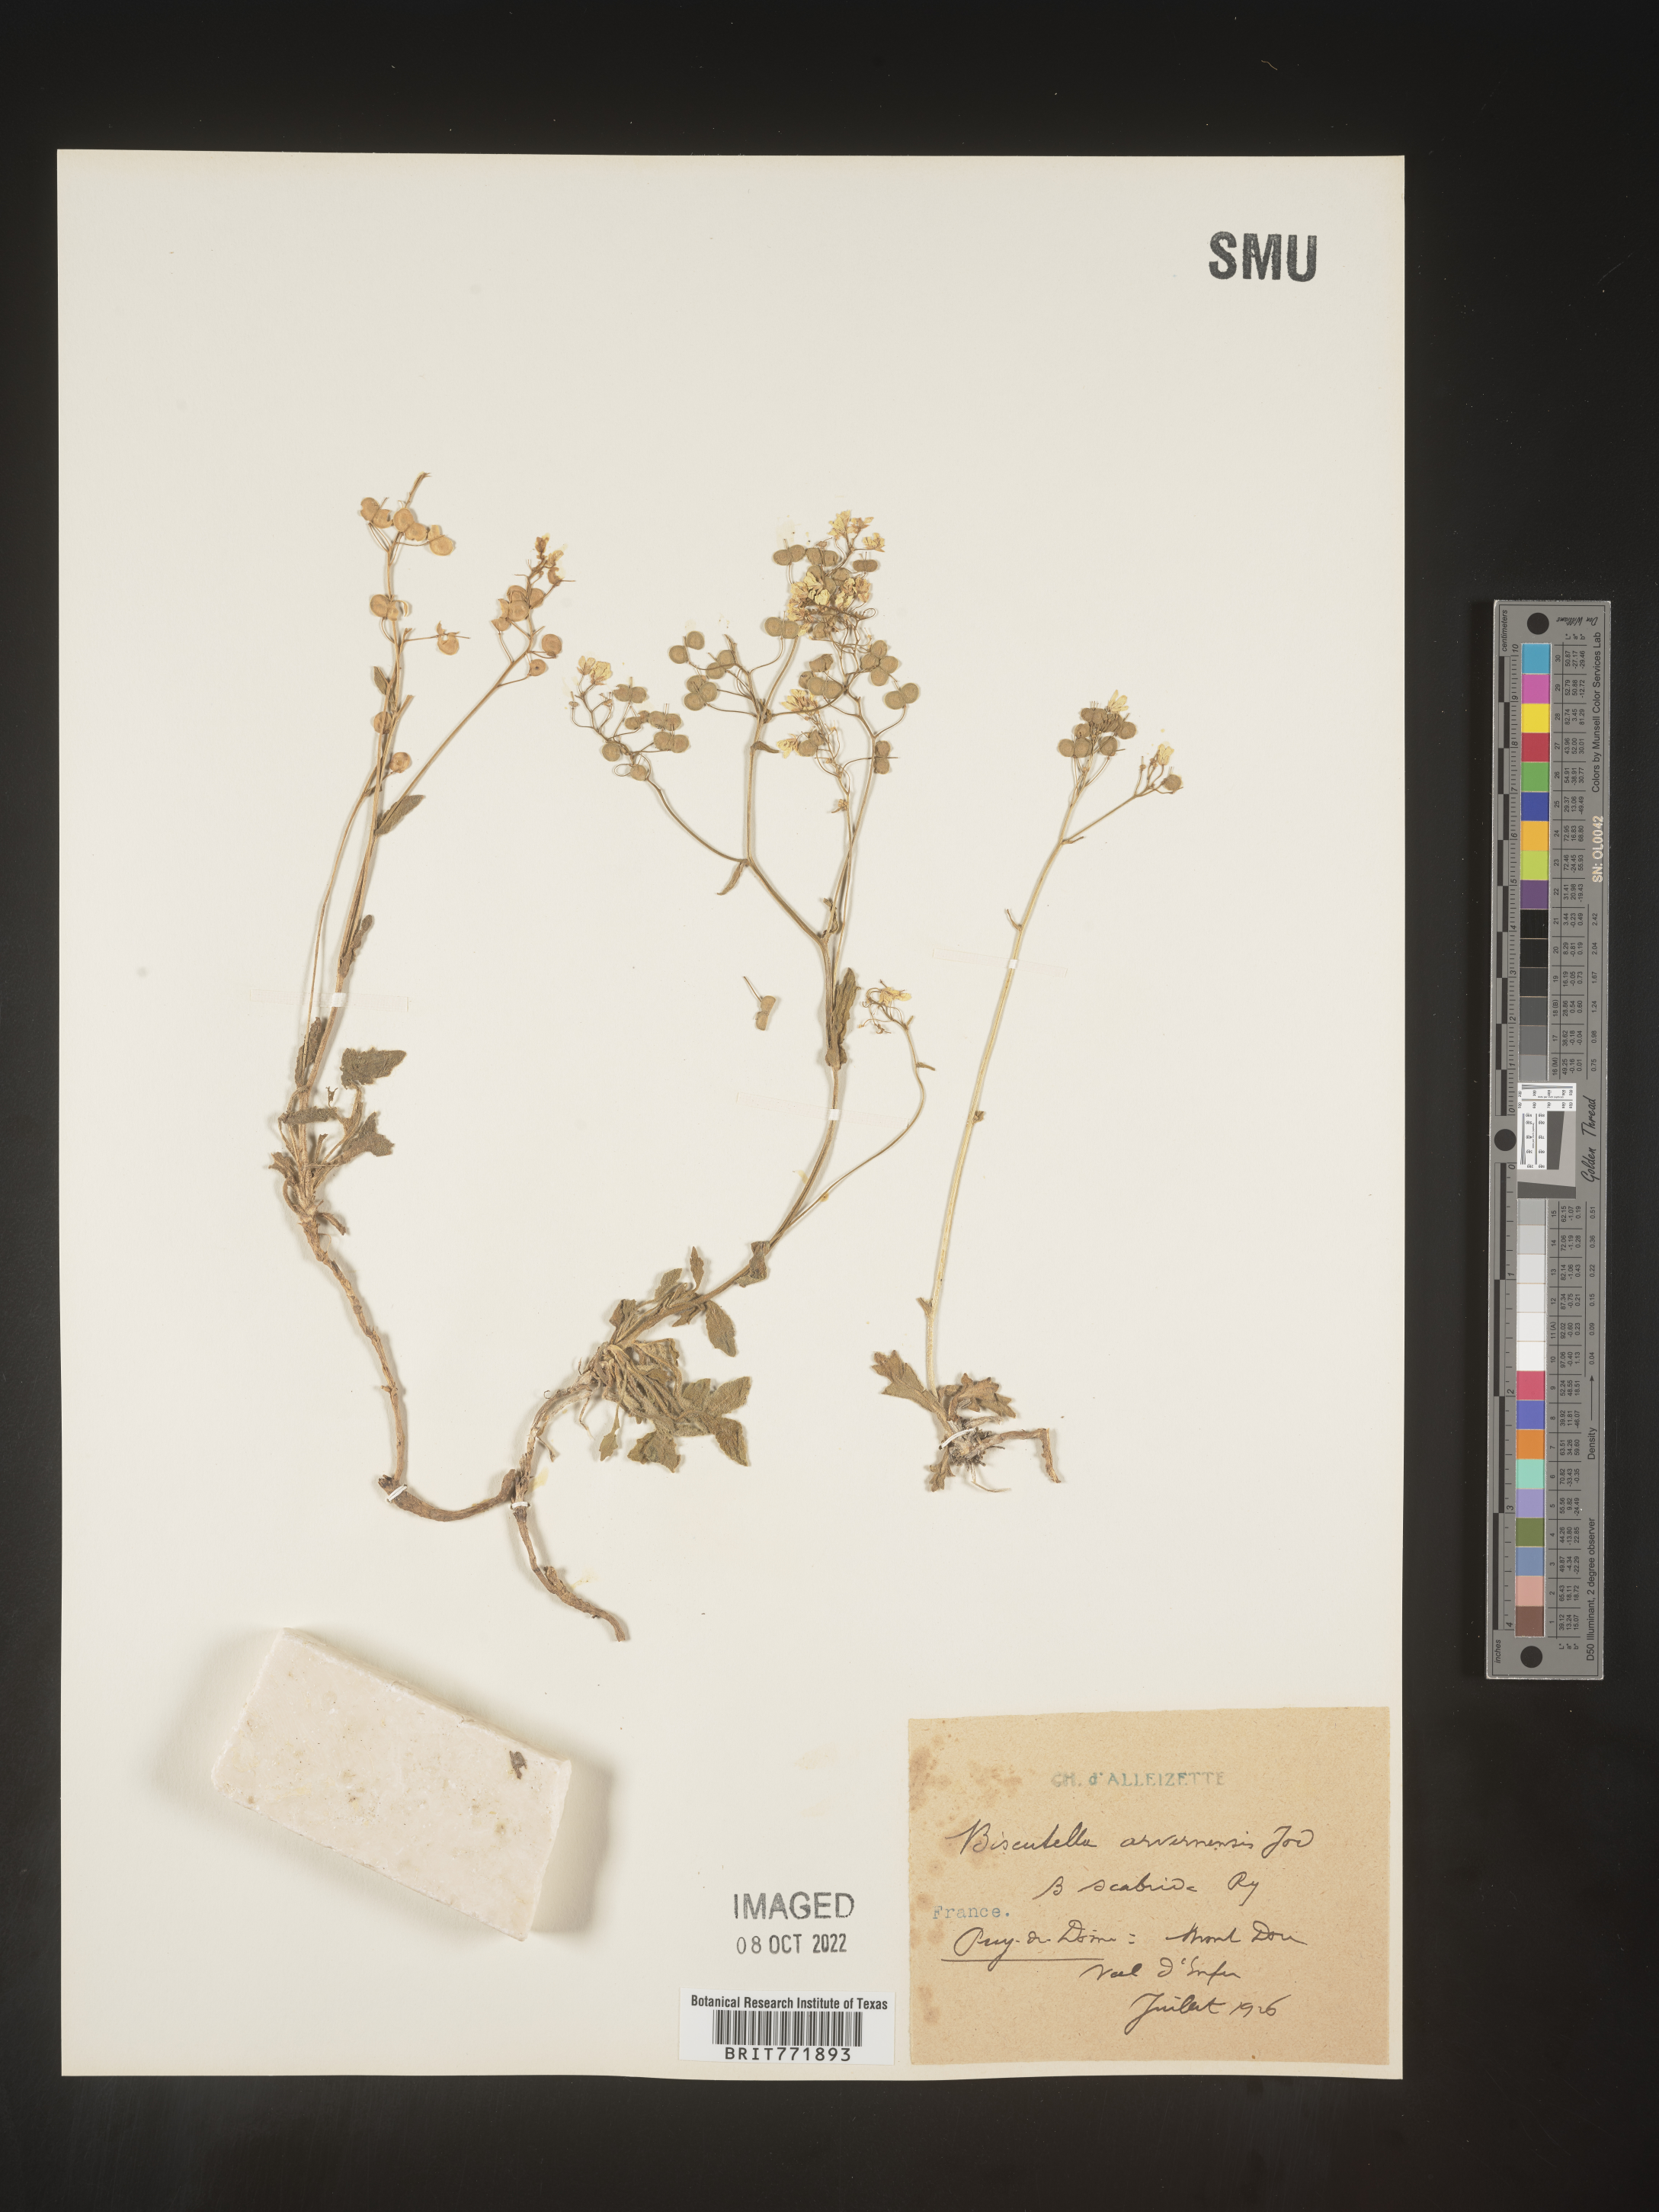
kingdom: Plantae
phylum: Tracheophyta
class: Magnoliopsida
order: Brassicales
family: Brassicaceae
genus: Biscutella
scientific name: Biscutella
